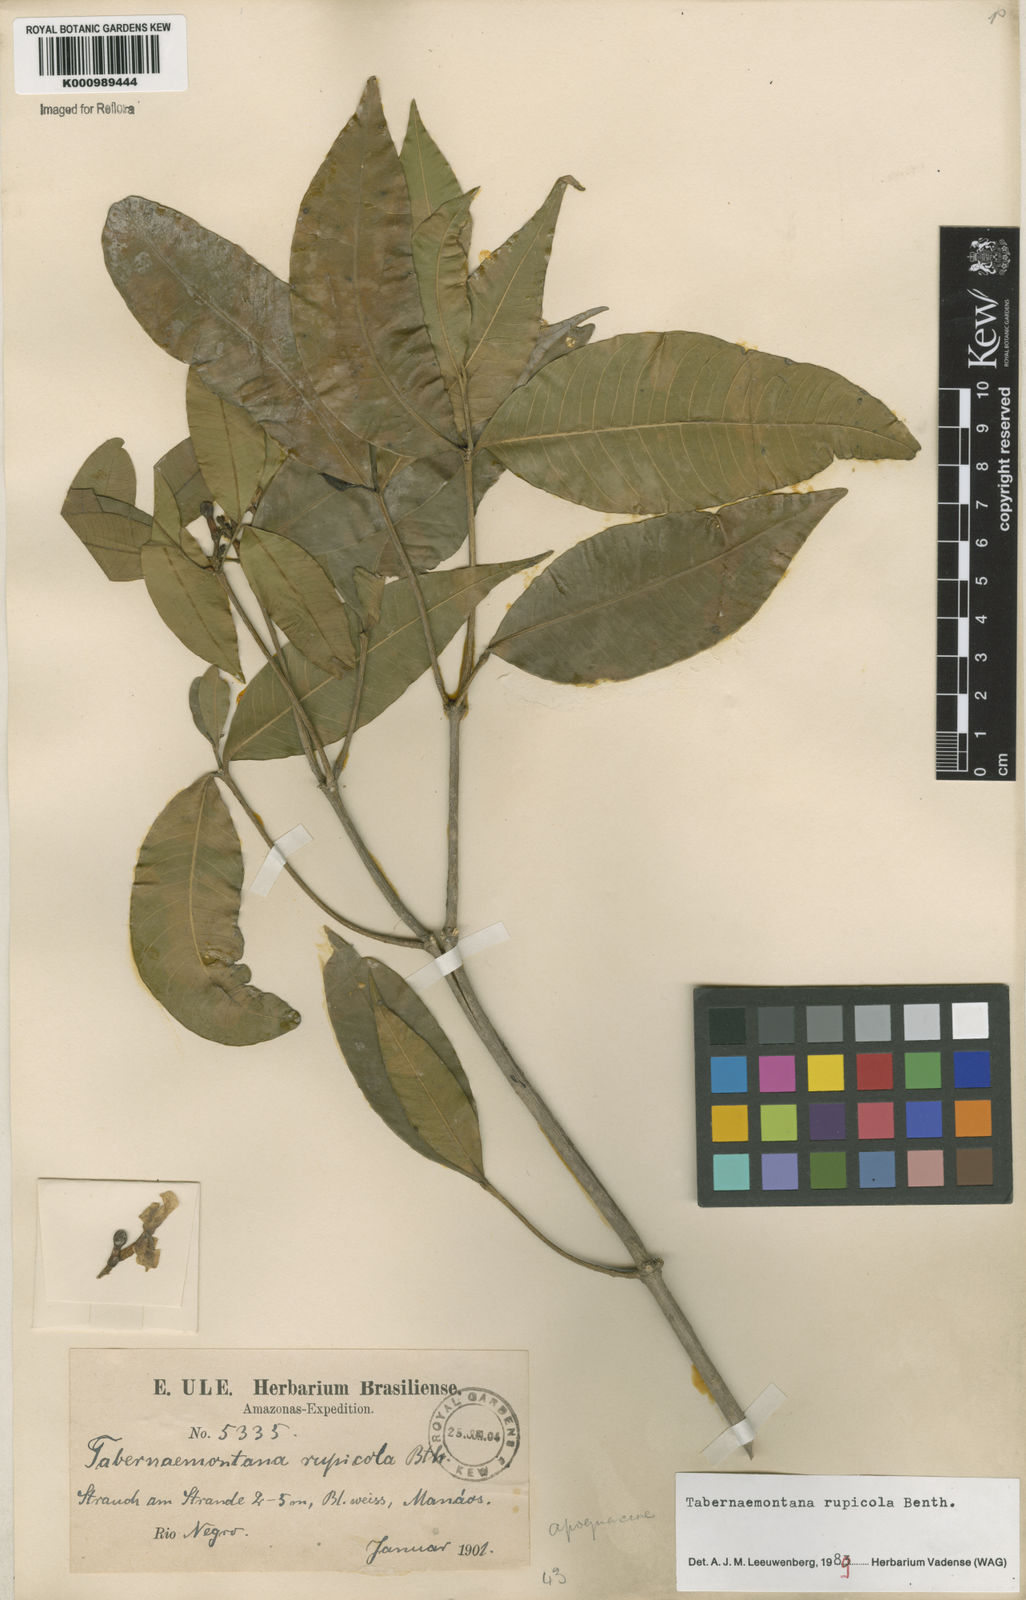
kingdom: Plantae
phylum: Tracheophyta
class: Magnoliopsida
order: Gentianales
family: Apocynaceae
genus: Tabernaemontana
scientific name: Tabernaemontana rupicola
